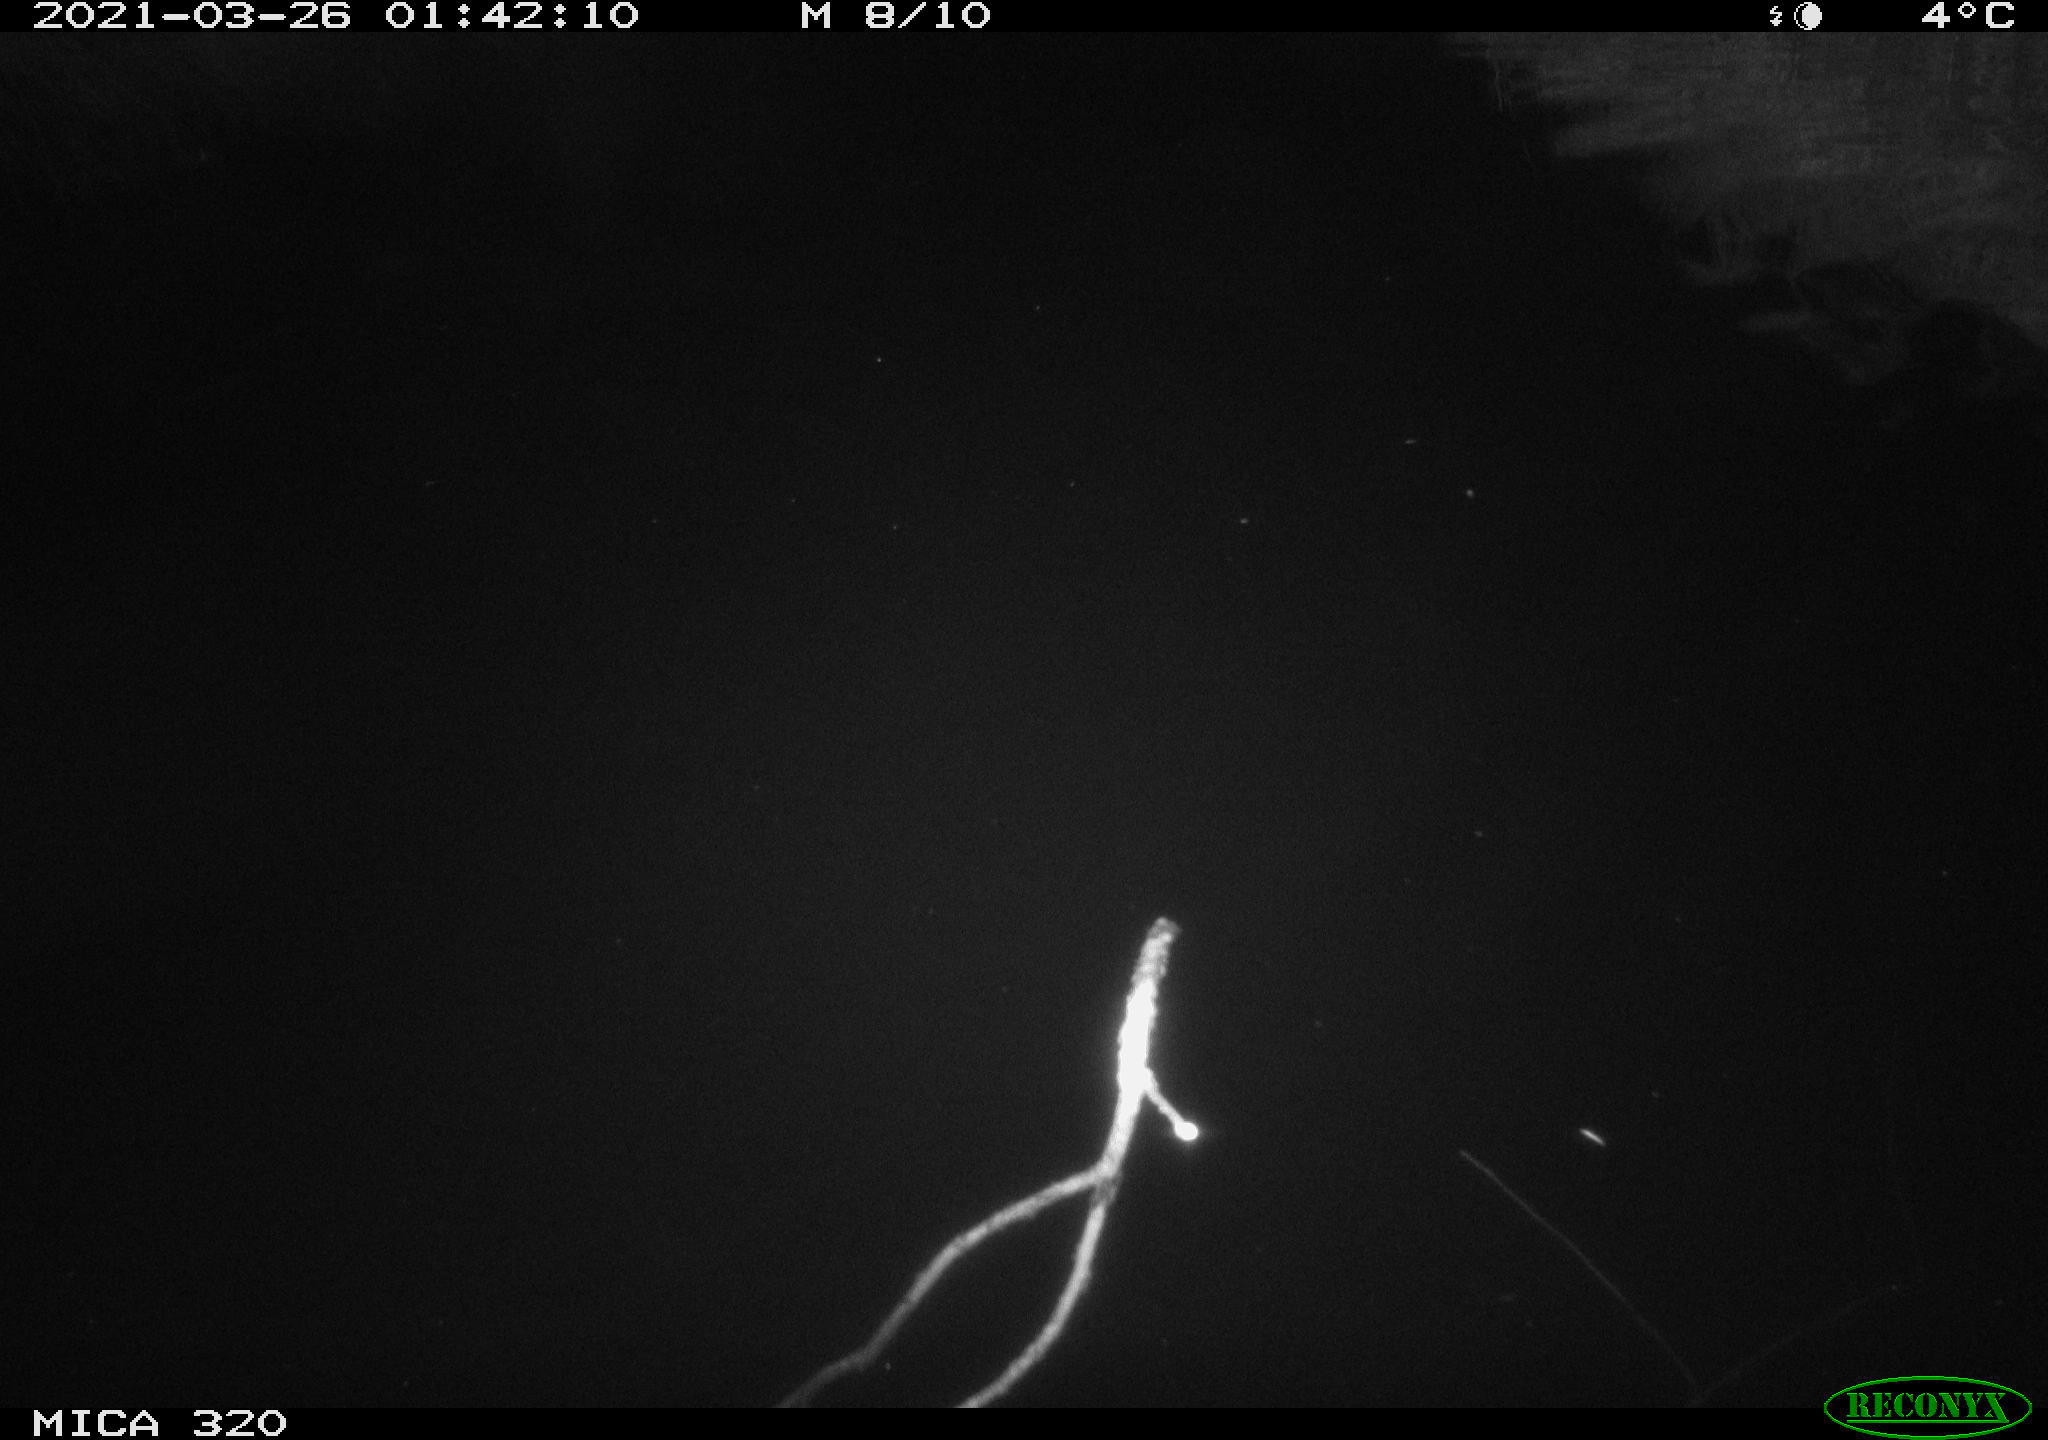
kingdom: Animalia
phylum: Chordata
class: Aves
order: Anseriformes
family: Anatidae
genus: Anas
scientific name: Anas platyrhynchos
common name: Mallard
